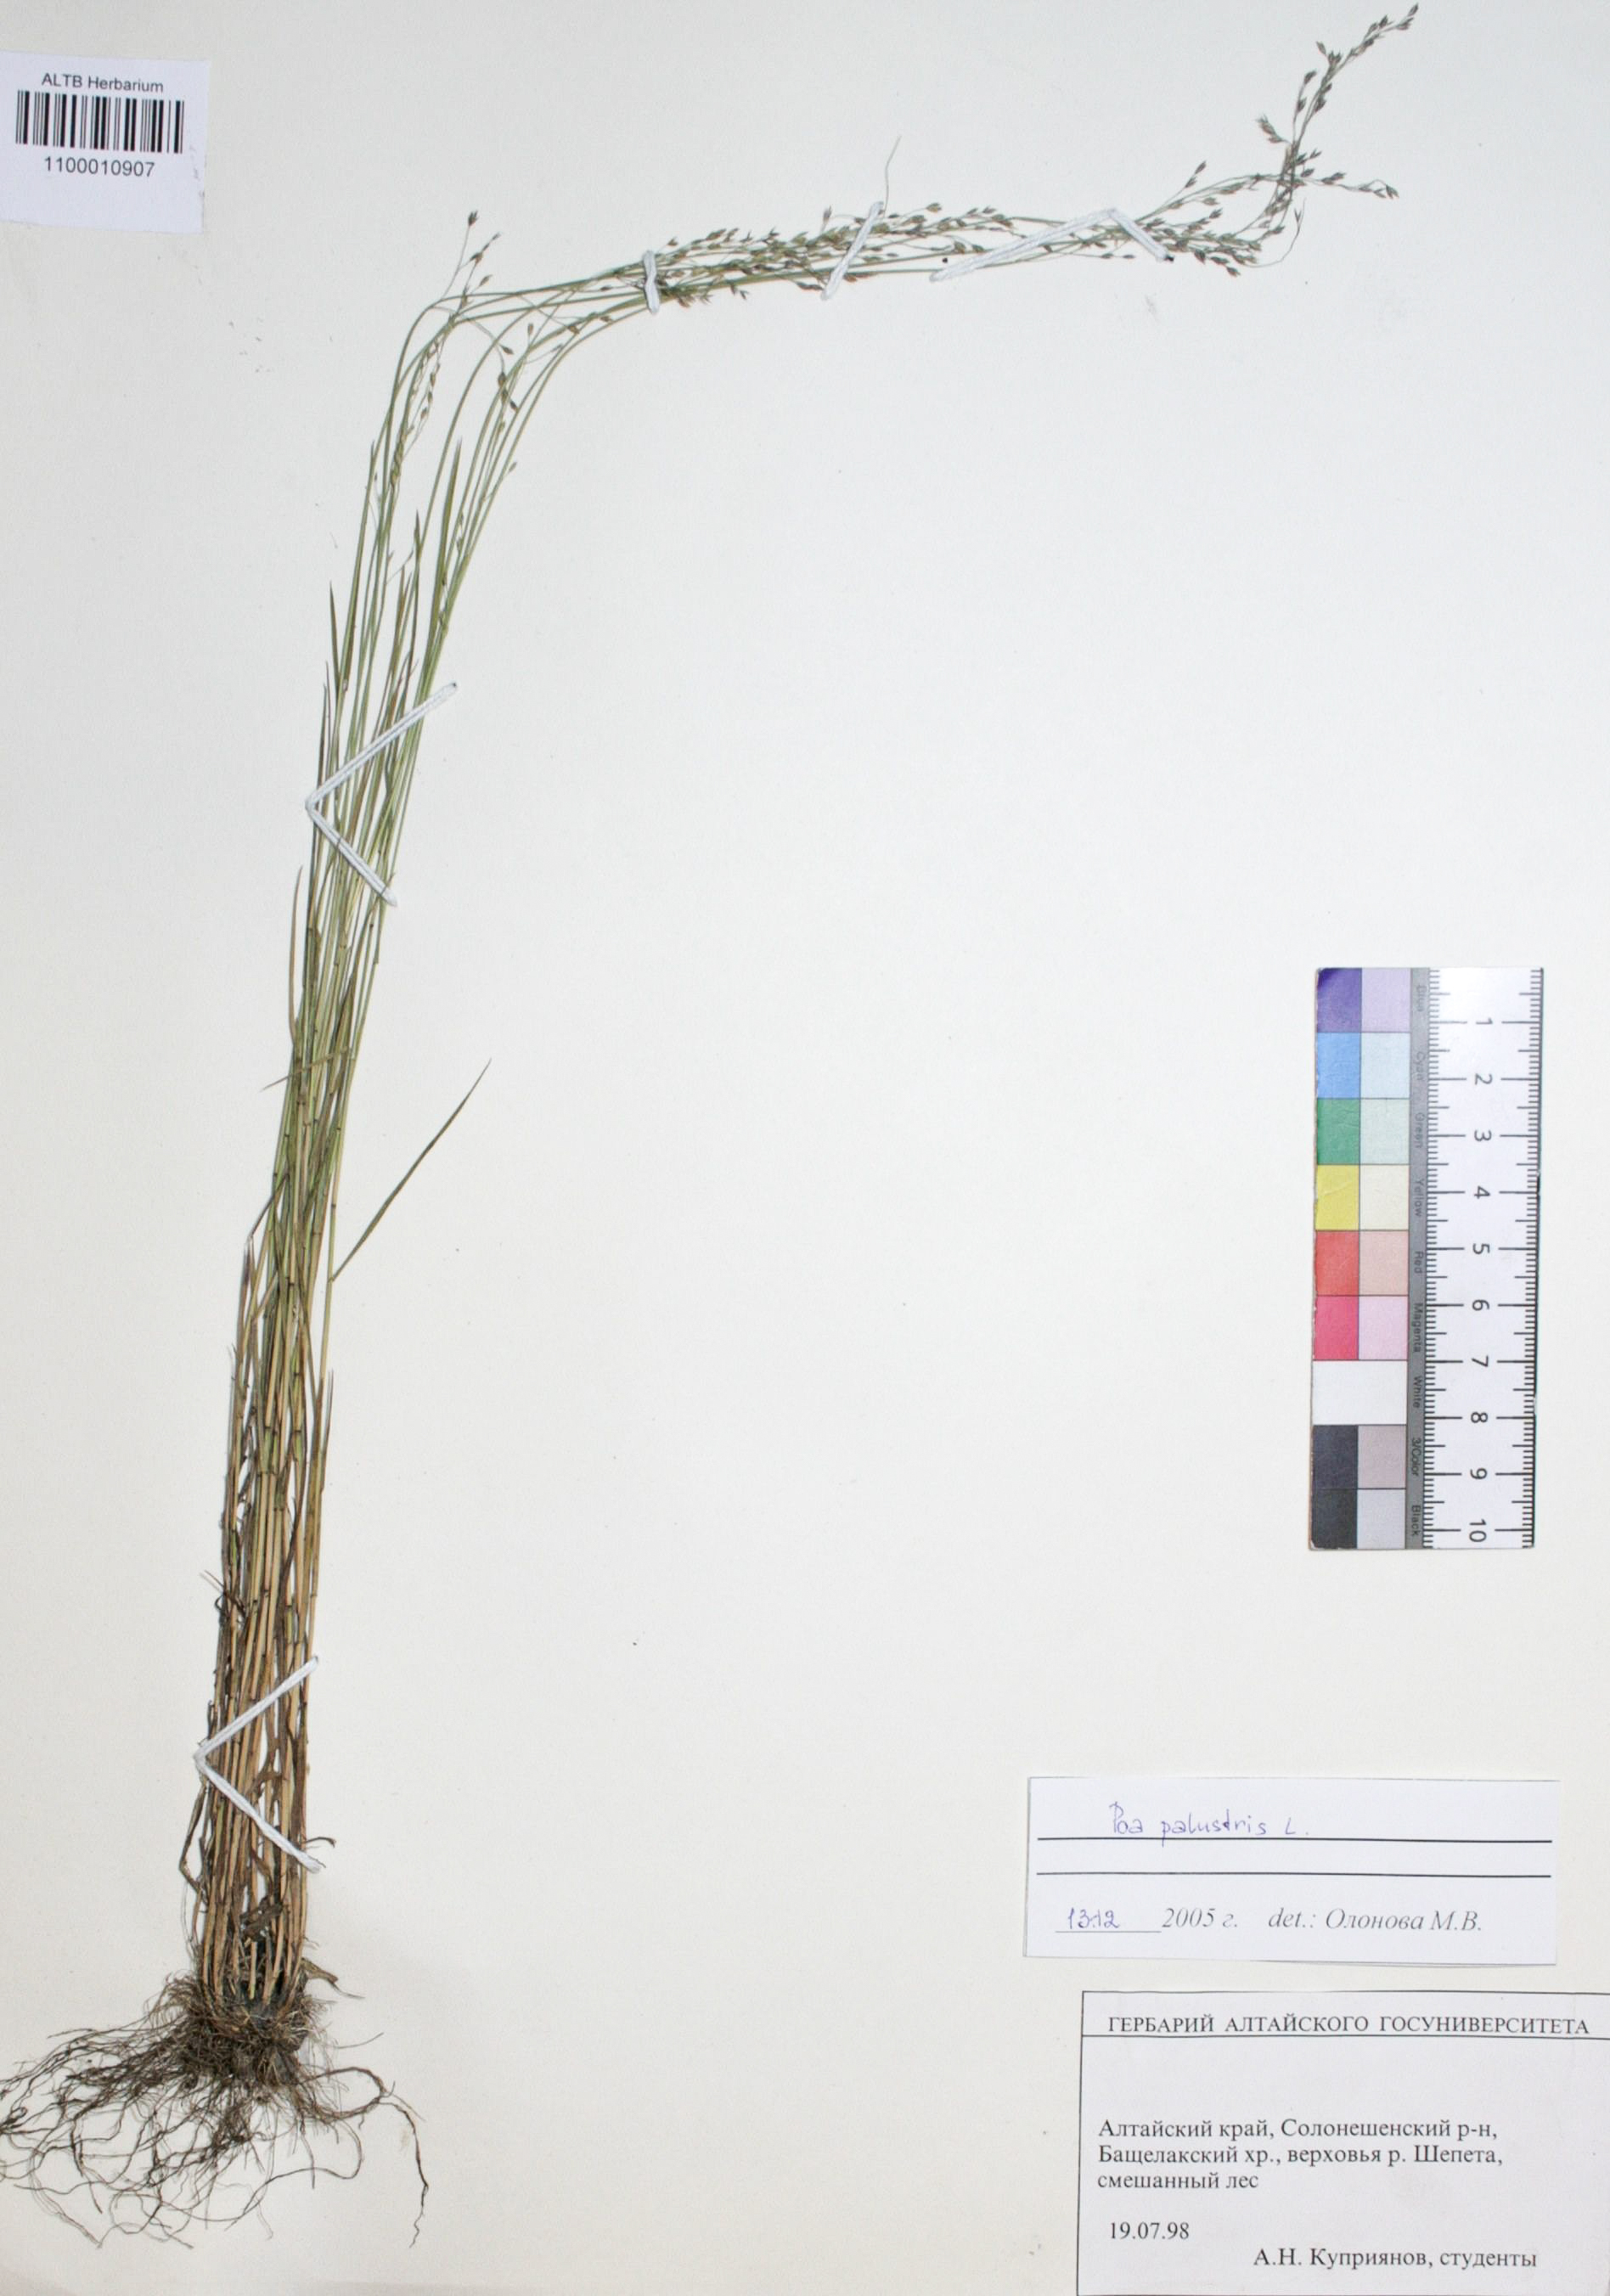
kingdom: Plantae
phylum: Tracheophyta
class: Liliopsida
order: Poales
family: Poaceae
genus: Poa
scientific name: Poa palustris
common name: Swamp meadow-grass
